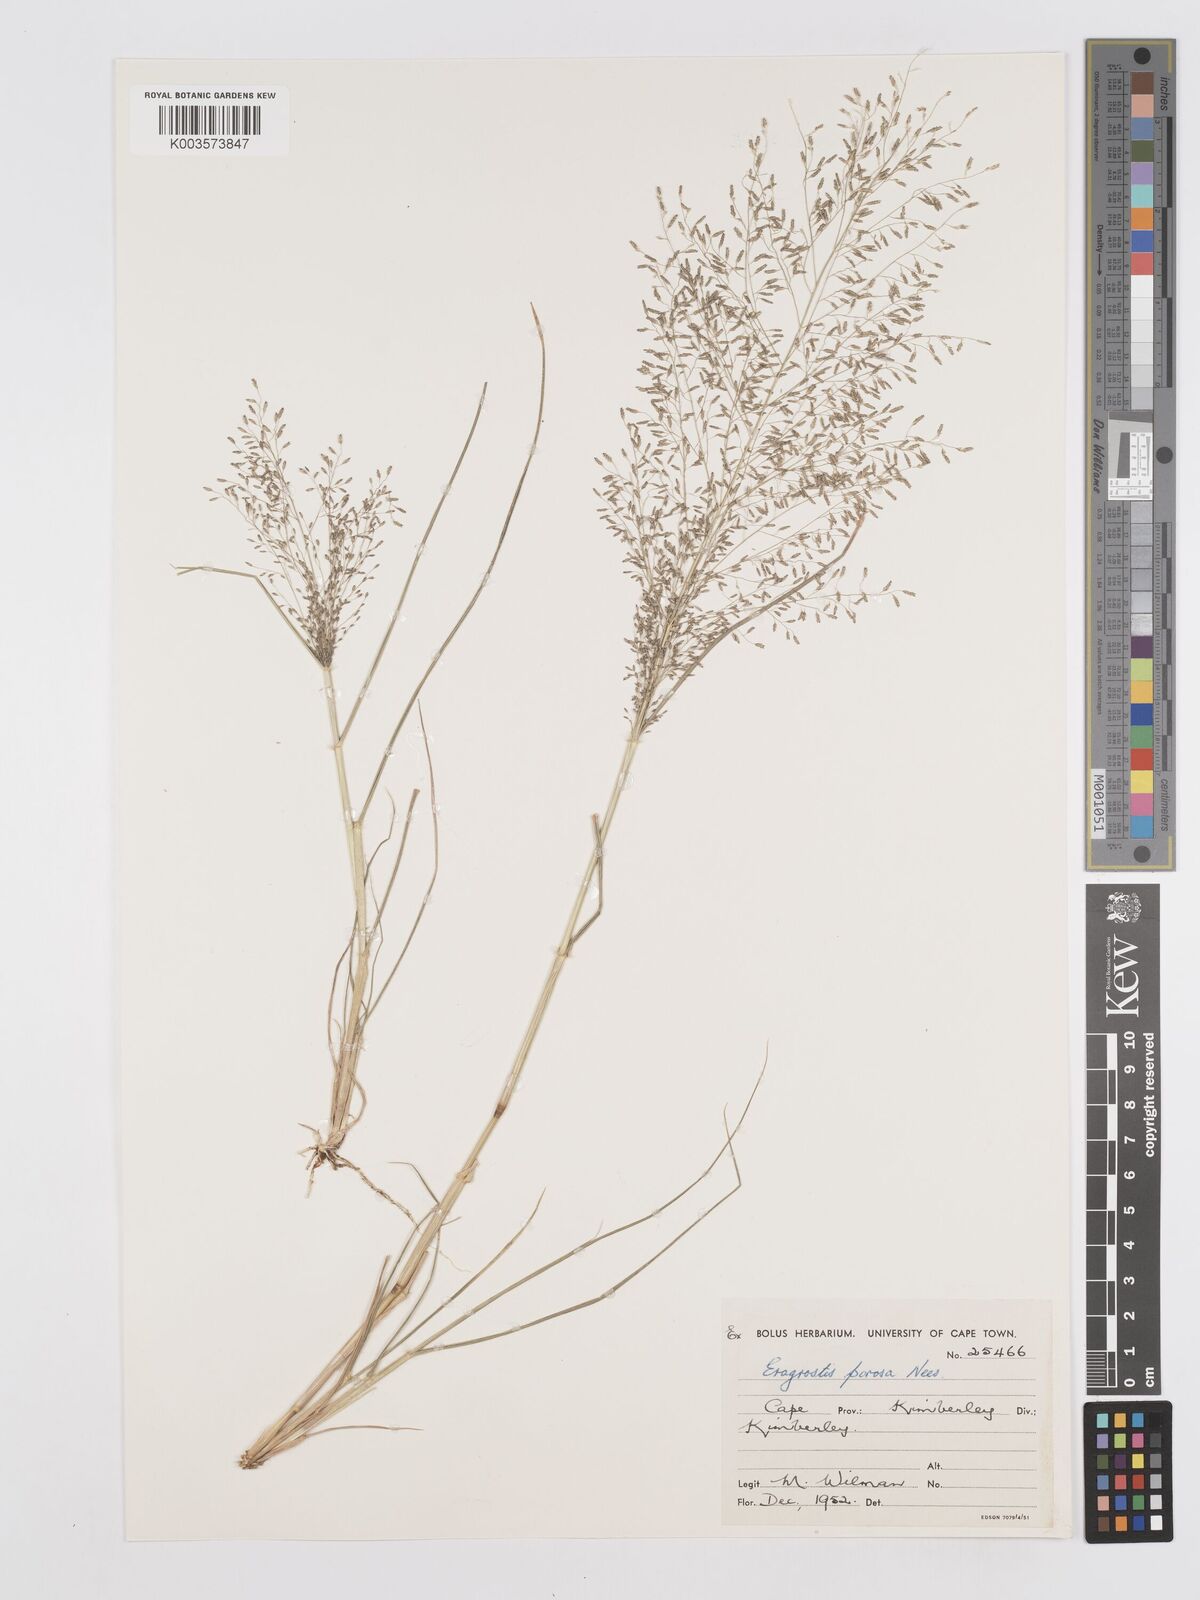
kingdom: Plantae
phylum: Tracheophyta
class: Liliopsida
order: Poales
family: Poaceae
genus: Eragrostis
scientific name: Eragrostis porosa
